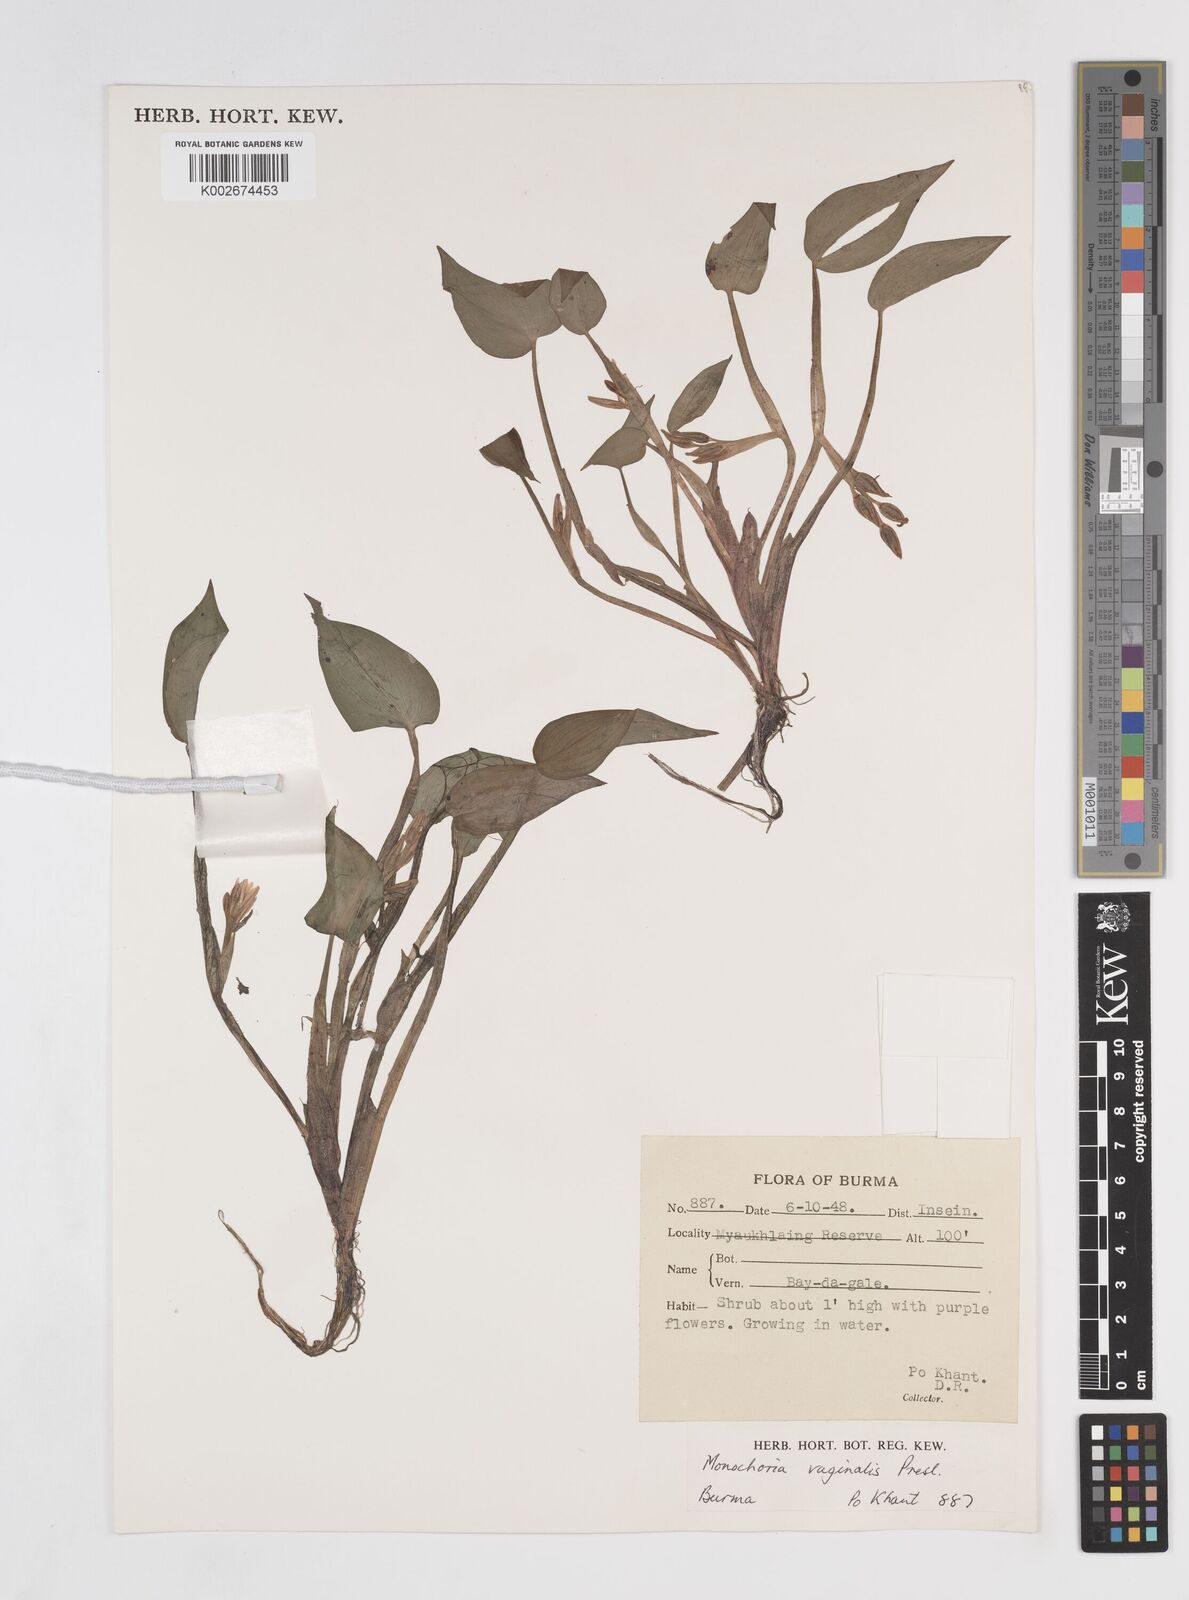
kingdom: Plantae
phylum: Tracheophyta
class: Liliopsida
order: Commelinales
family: Pontederiaceae
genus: Pontederia
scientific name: Pontederia vaginalis
